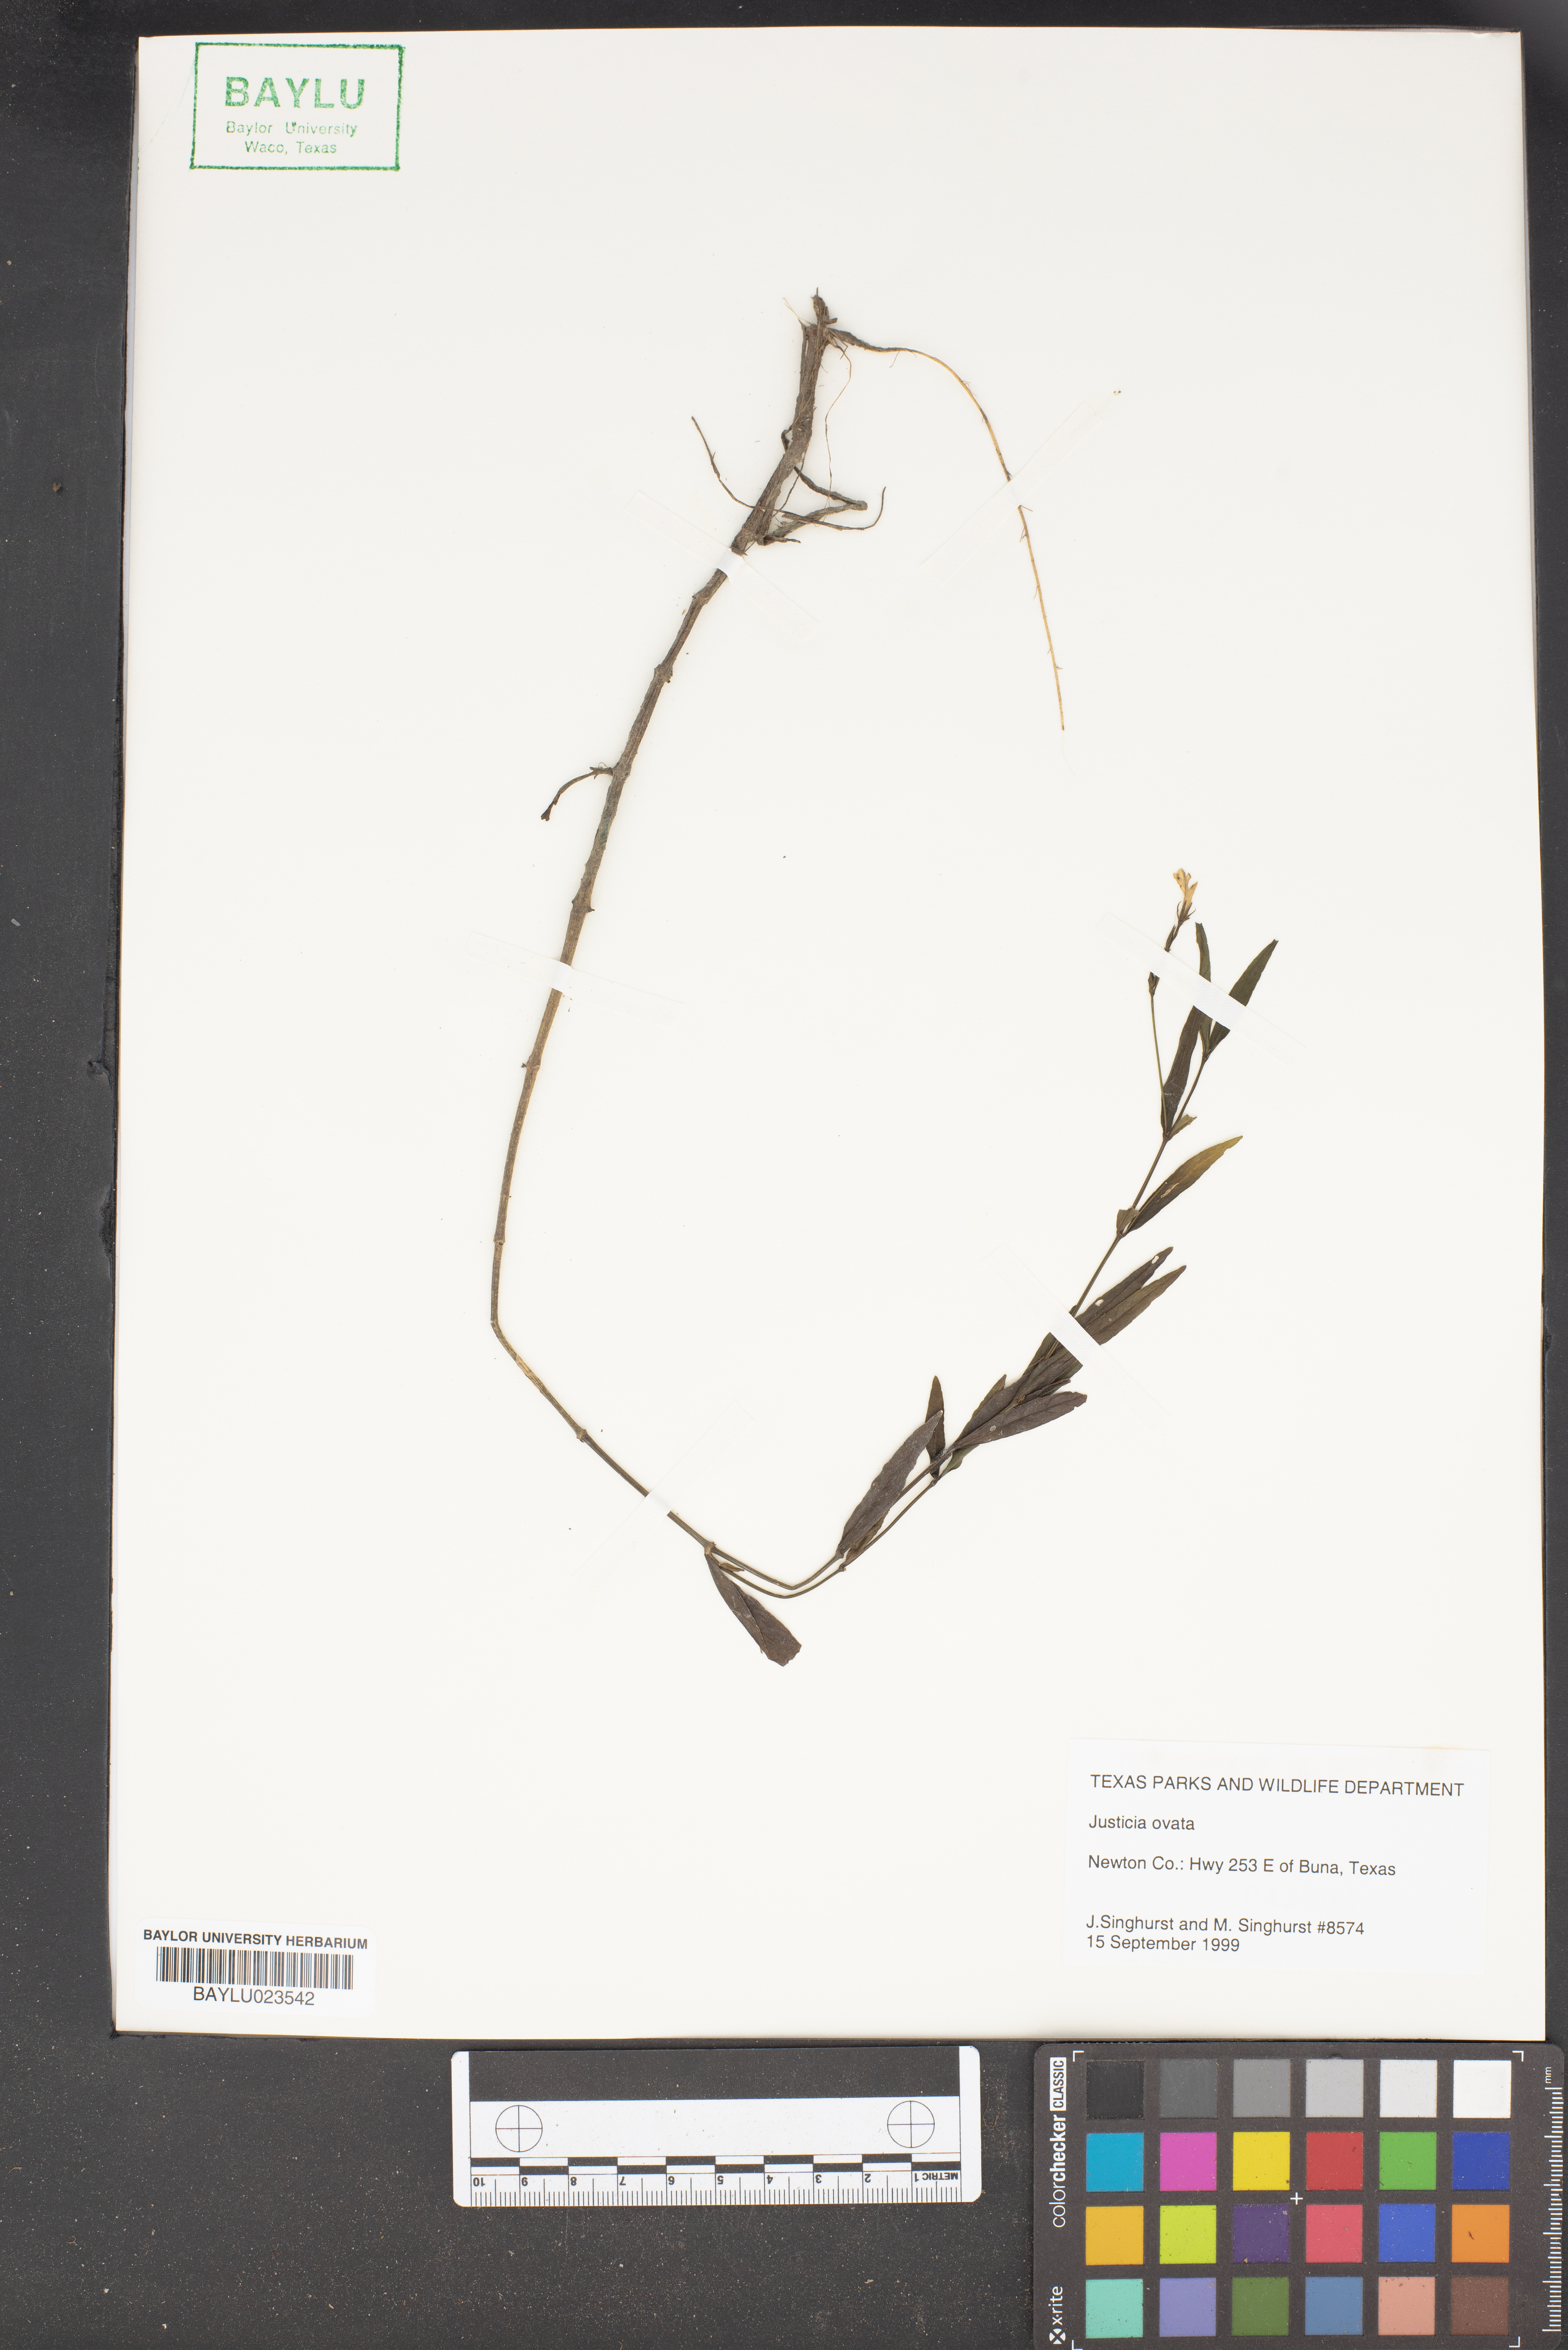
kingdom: Plantae
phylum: Tracheophyta
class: Magnoliopsida
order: Lamiales
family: Acanthaceae
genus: Dianthera
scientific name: Dianthera ovata
